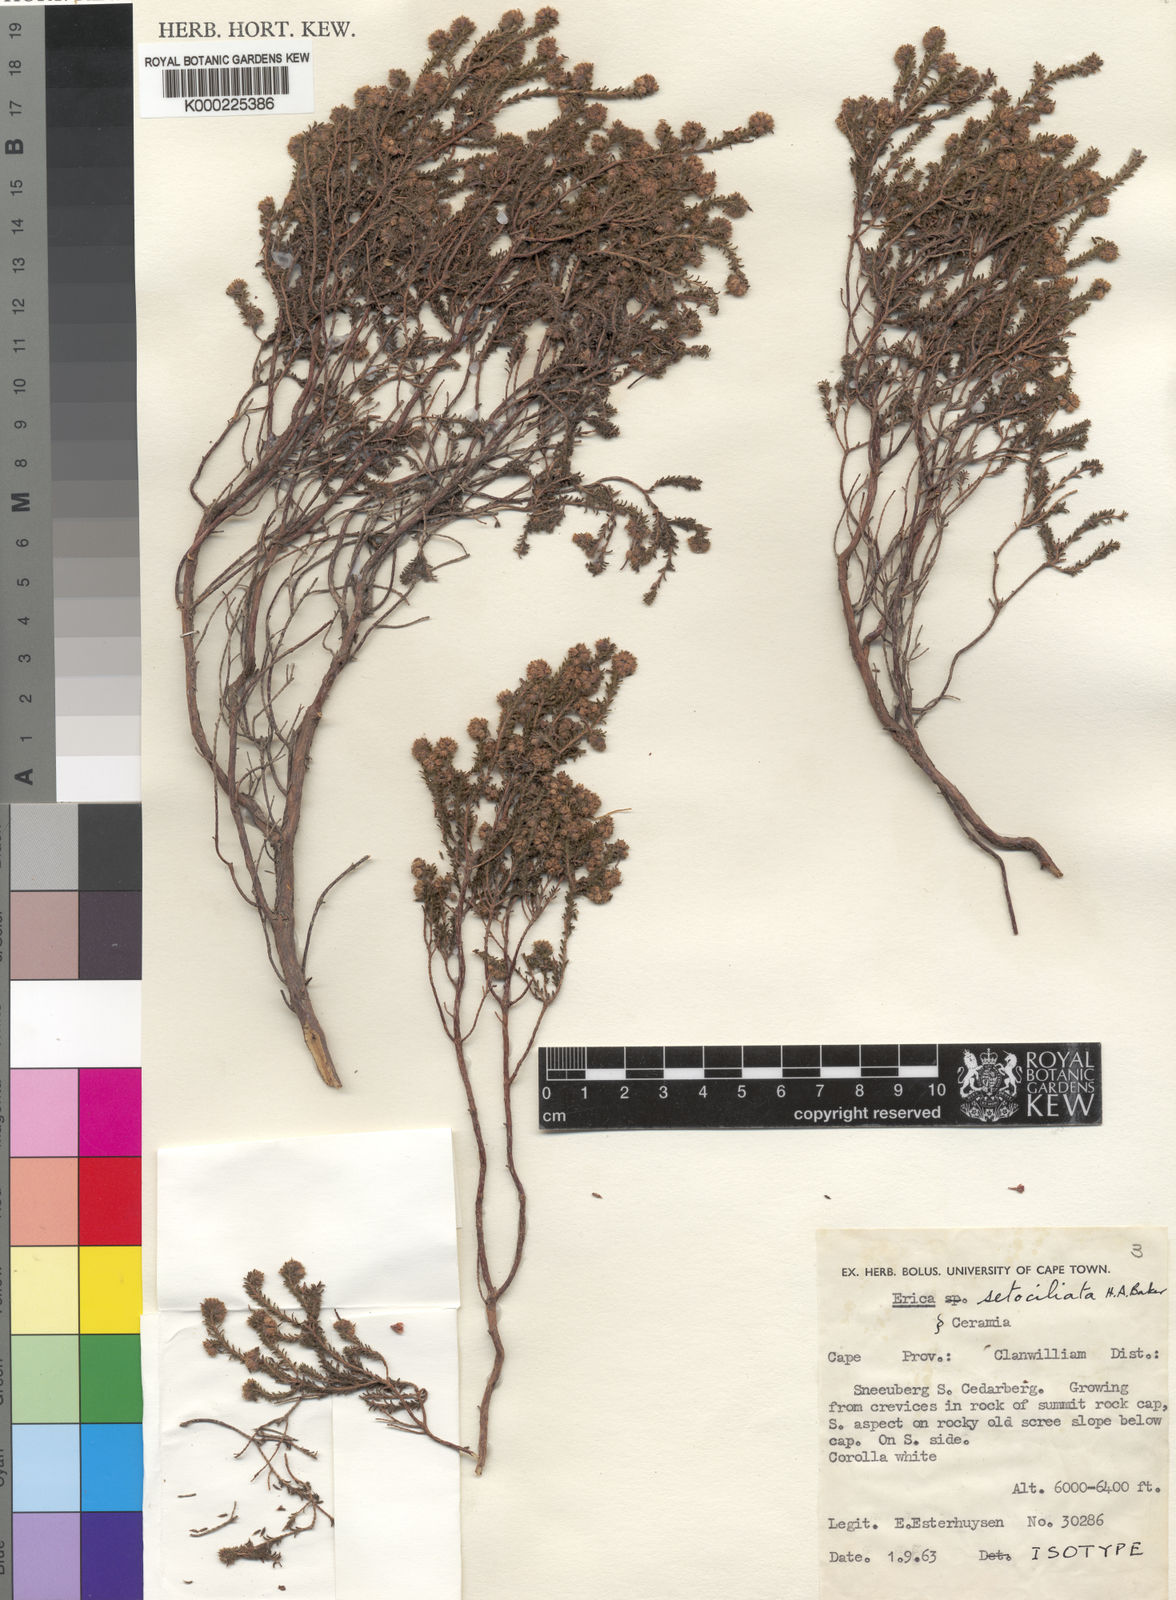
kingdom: Plantae
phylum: Tracheophyta
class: Magnoliopsida
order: Ericales
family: Ericaceae
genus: Erica
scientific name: Erica
